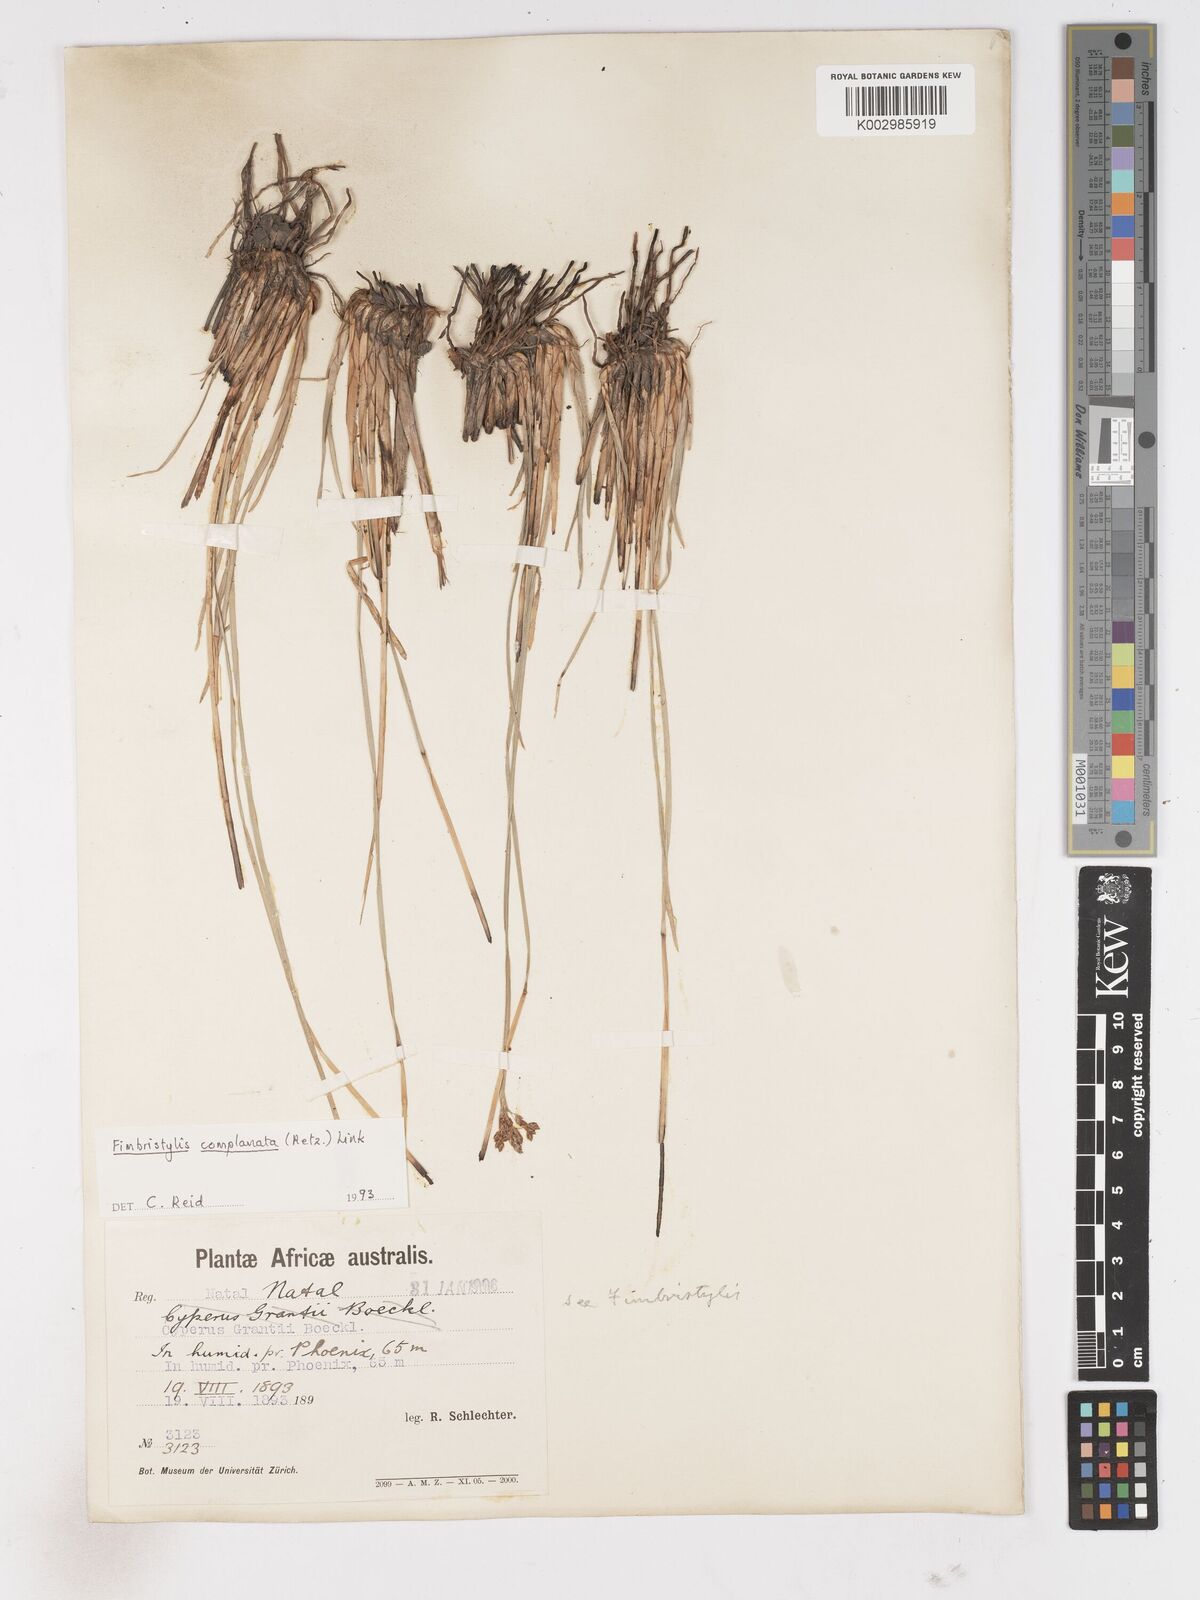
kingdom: Plantae
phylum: Tracheophyta
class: Liliopsida
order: Poales
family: Cyperaceae
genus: Fimbristylis
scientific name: Fimbristylis complanata
